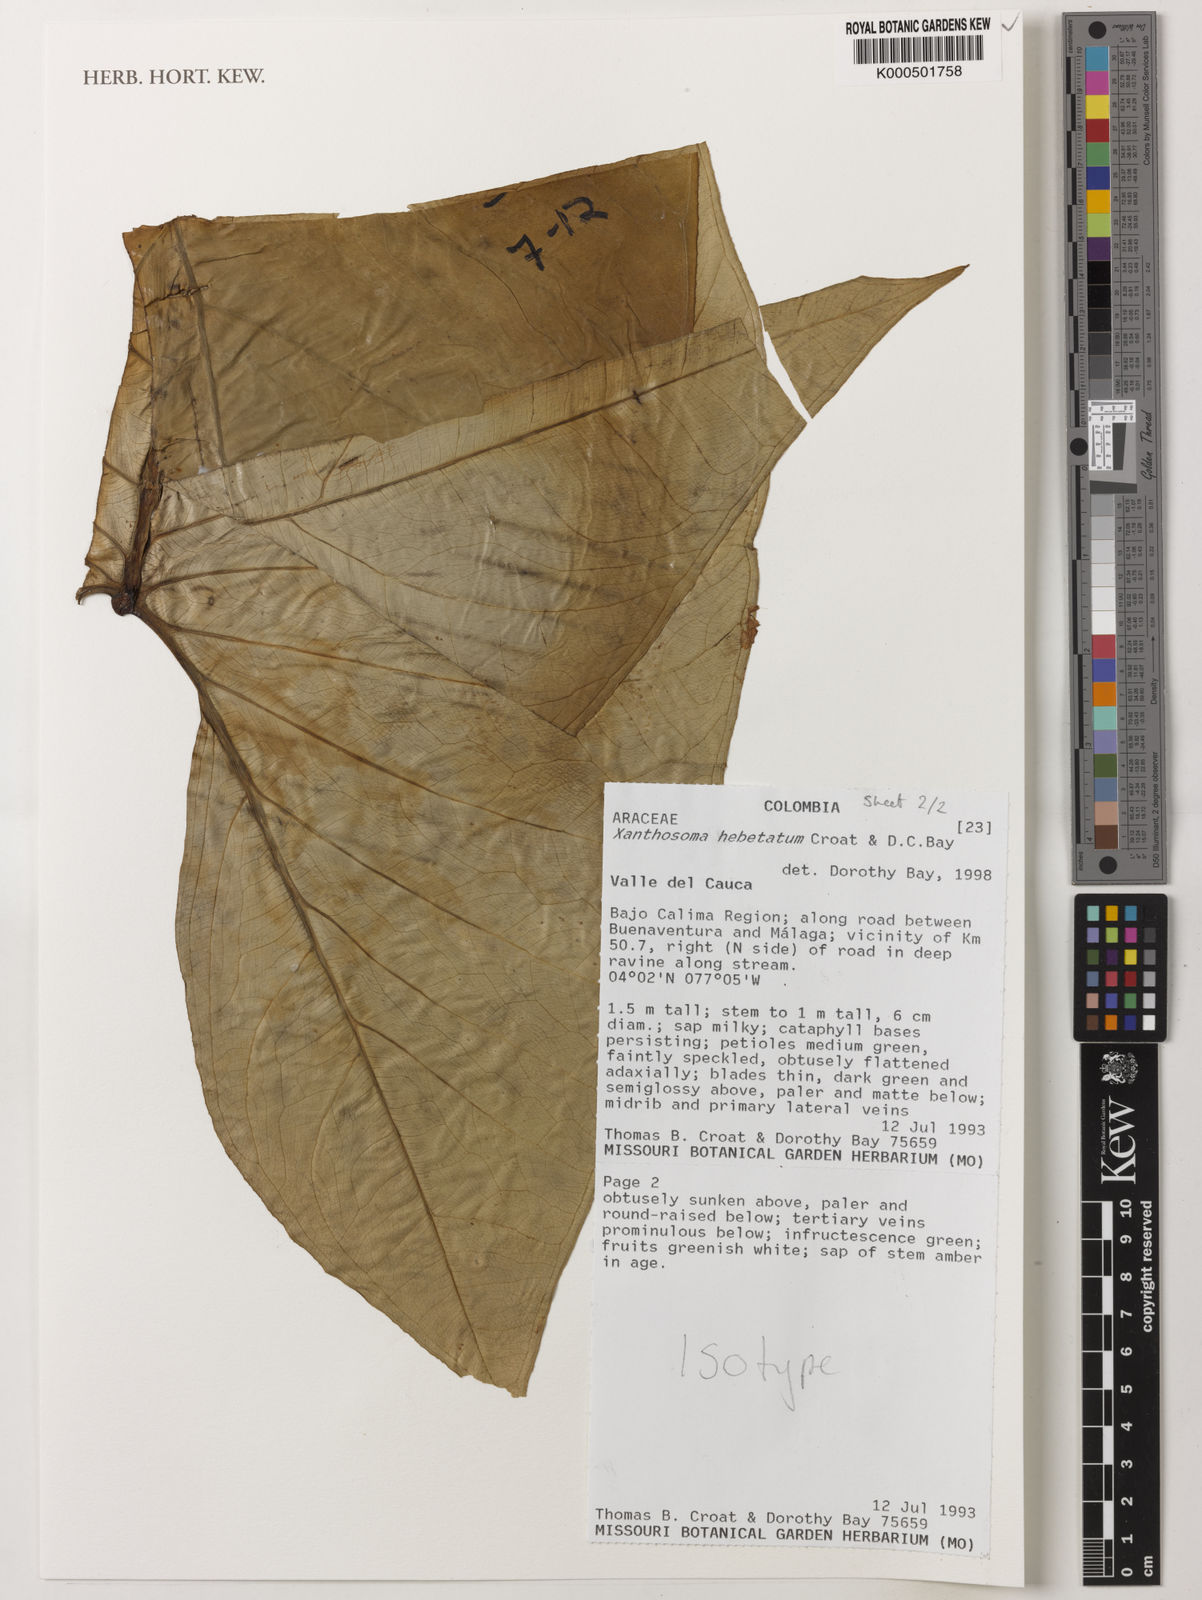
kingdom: Plantae
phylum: Tracheophyta
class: Liliopsida
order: Alismatales
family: Araceae
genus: Xanthosoma
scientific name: Xanthosoma hebetatum
